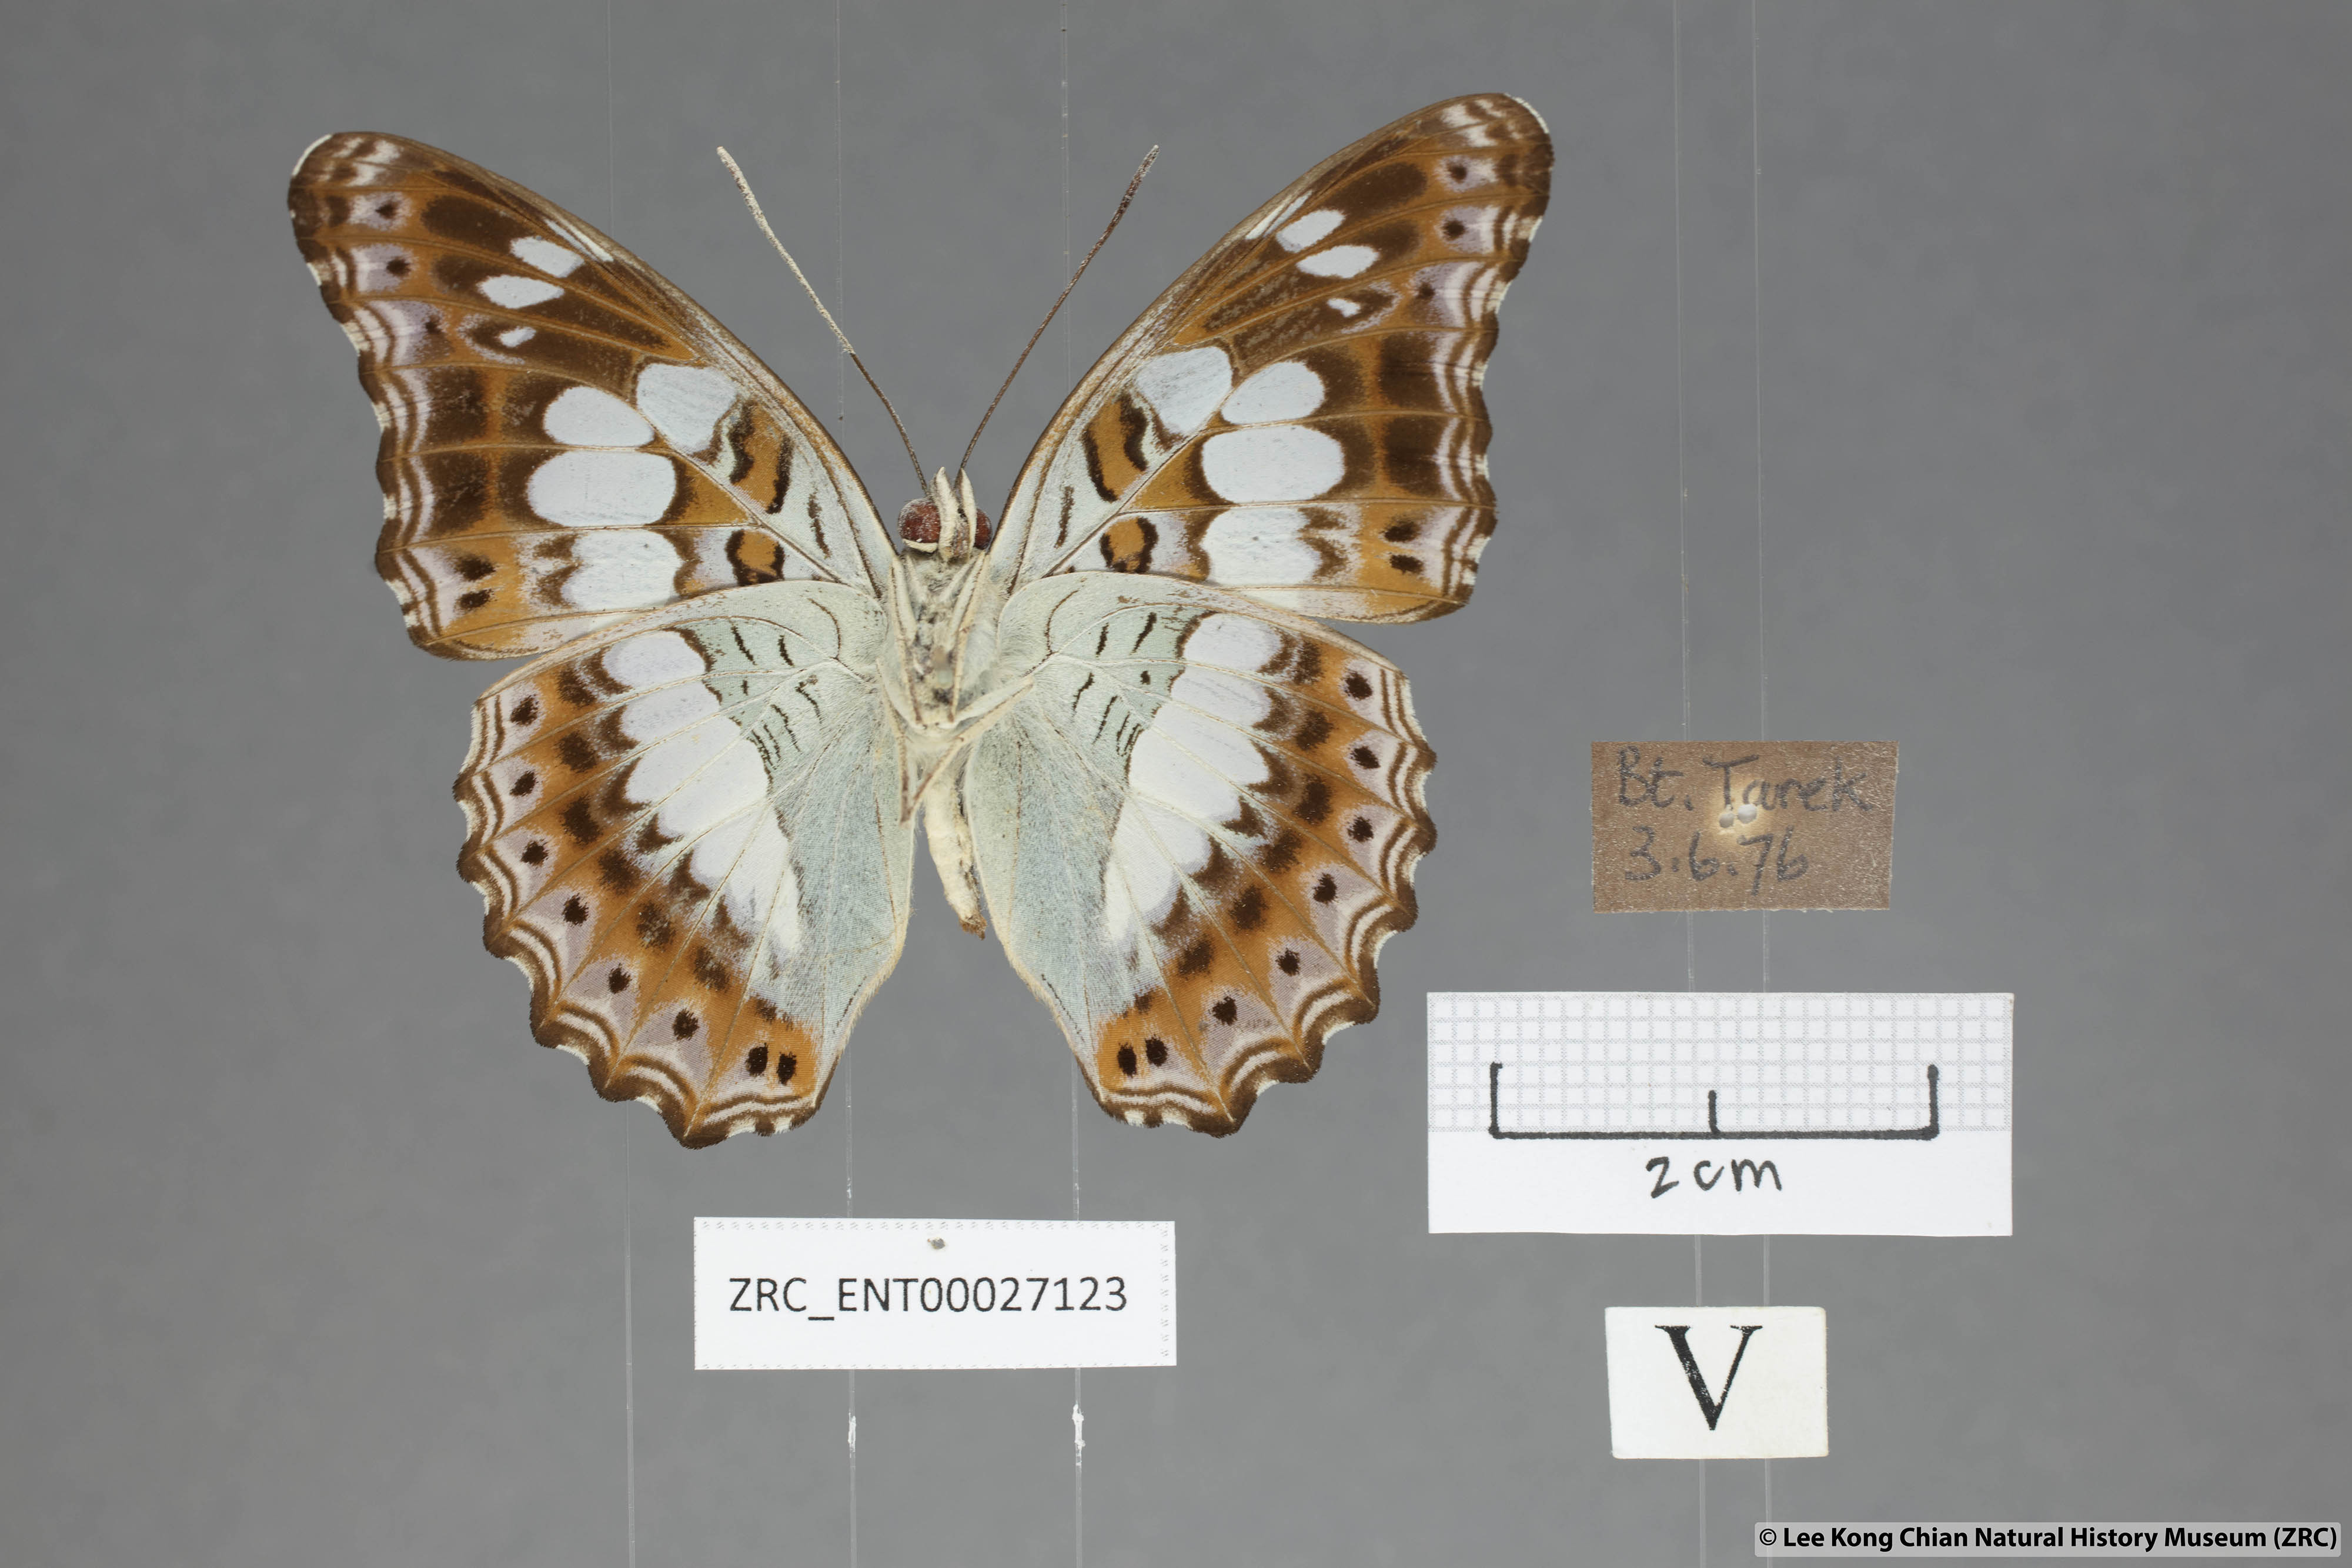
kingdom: Animalia
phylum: Arthropoda
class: Insecta
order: Lepidoptera
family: Nymphalidae
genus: Limenitis
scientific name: Limenitis Moduza procris
